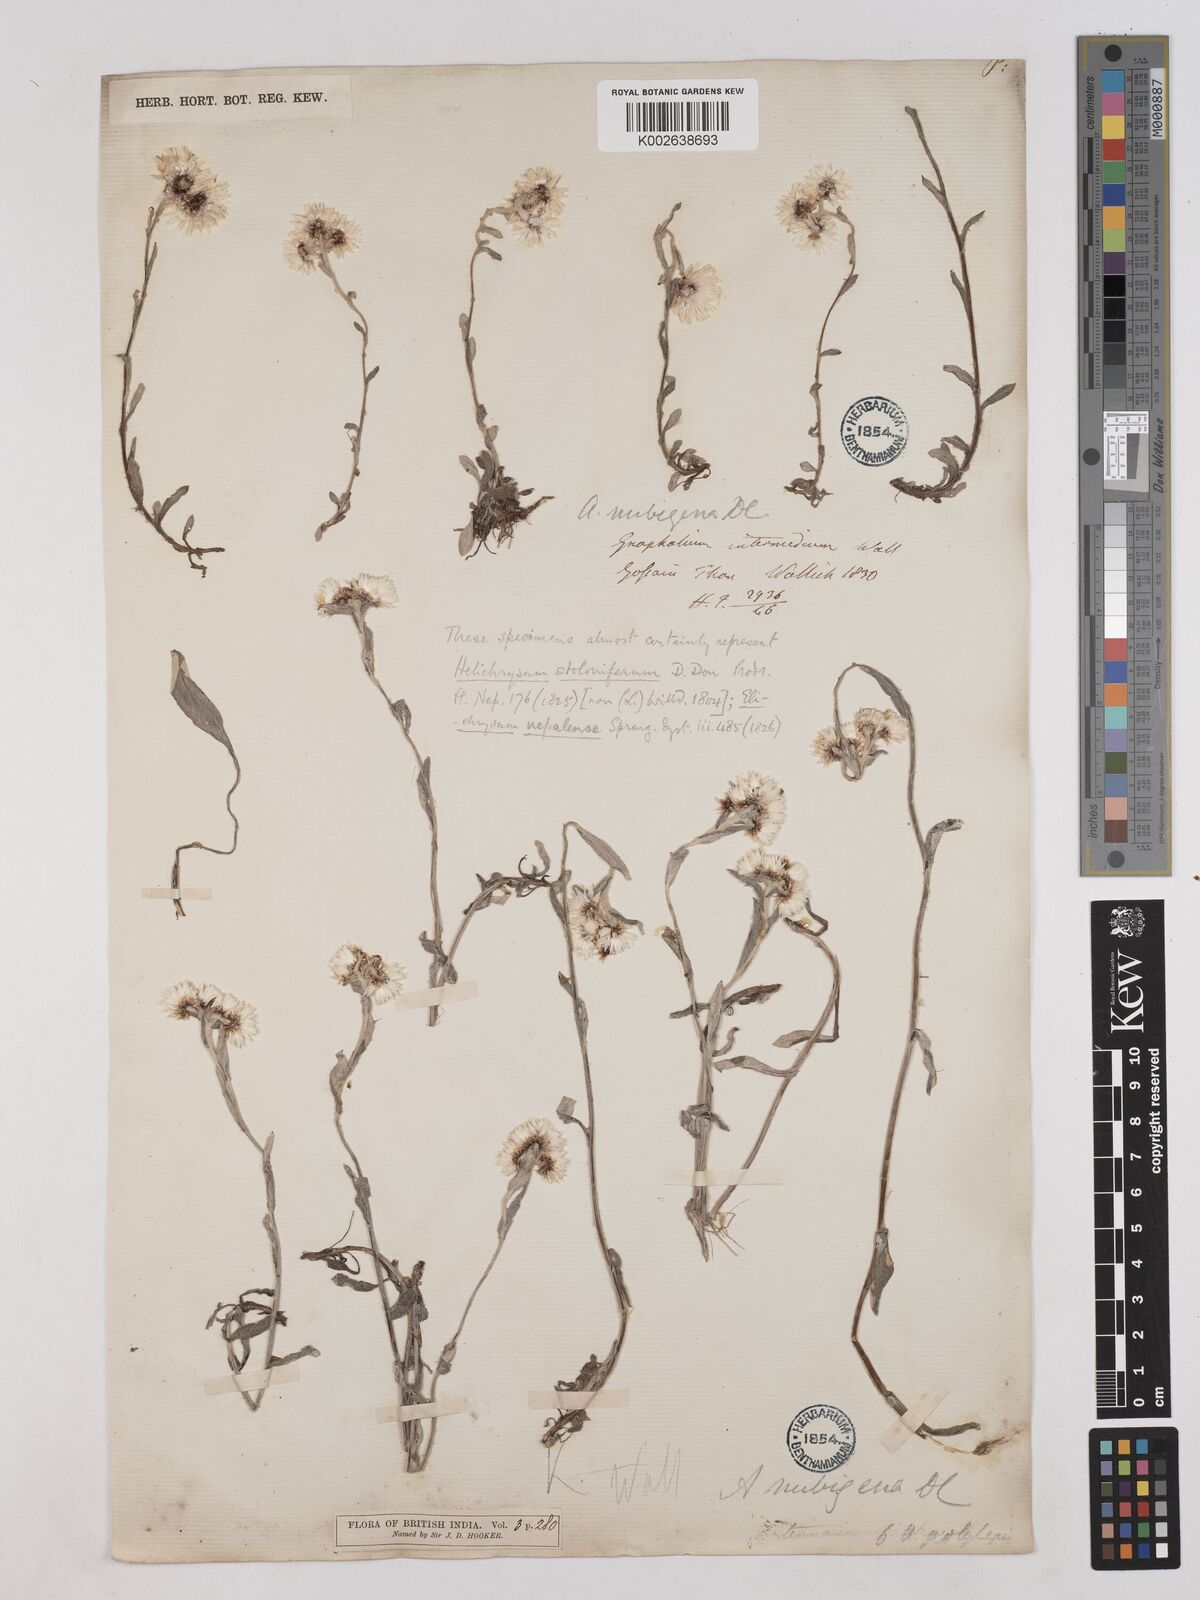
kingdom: Plantae
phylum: Tracheophyta
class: Magnoliopsida
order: Asterales
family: Asteraceae
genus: Anaphalis
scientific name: Anaphalis nepalensis
